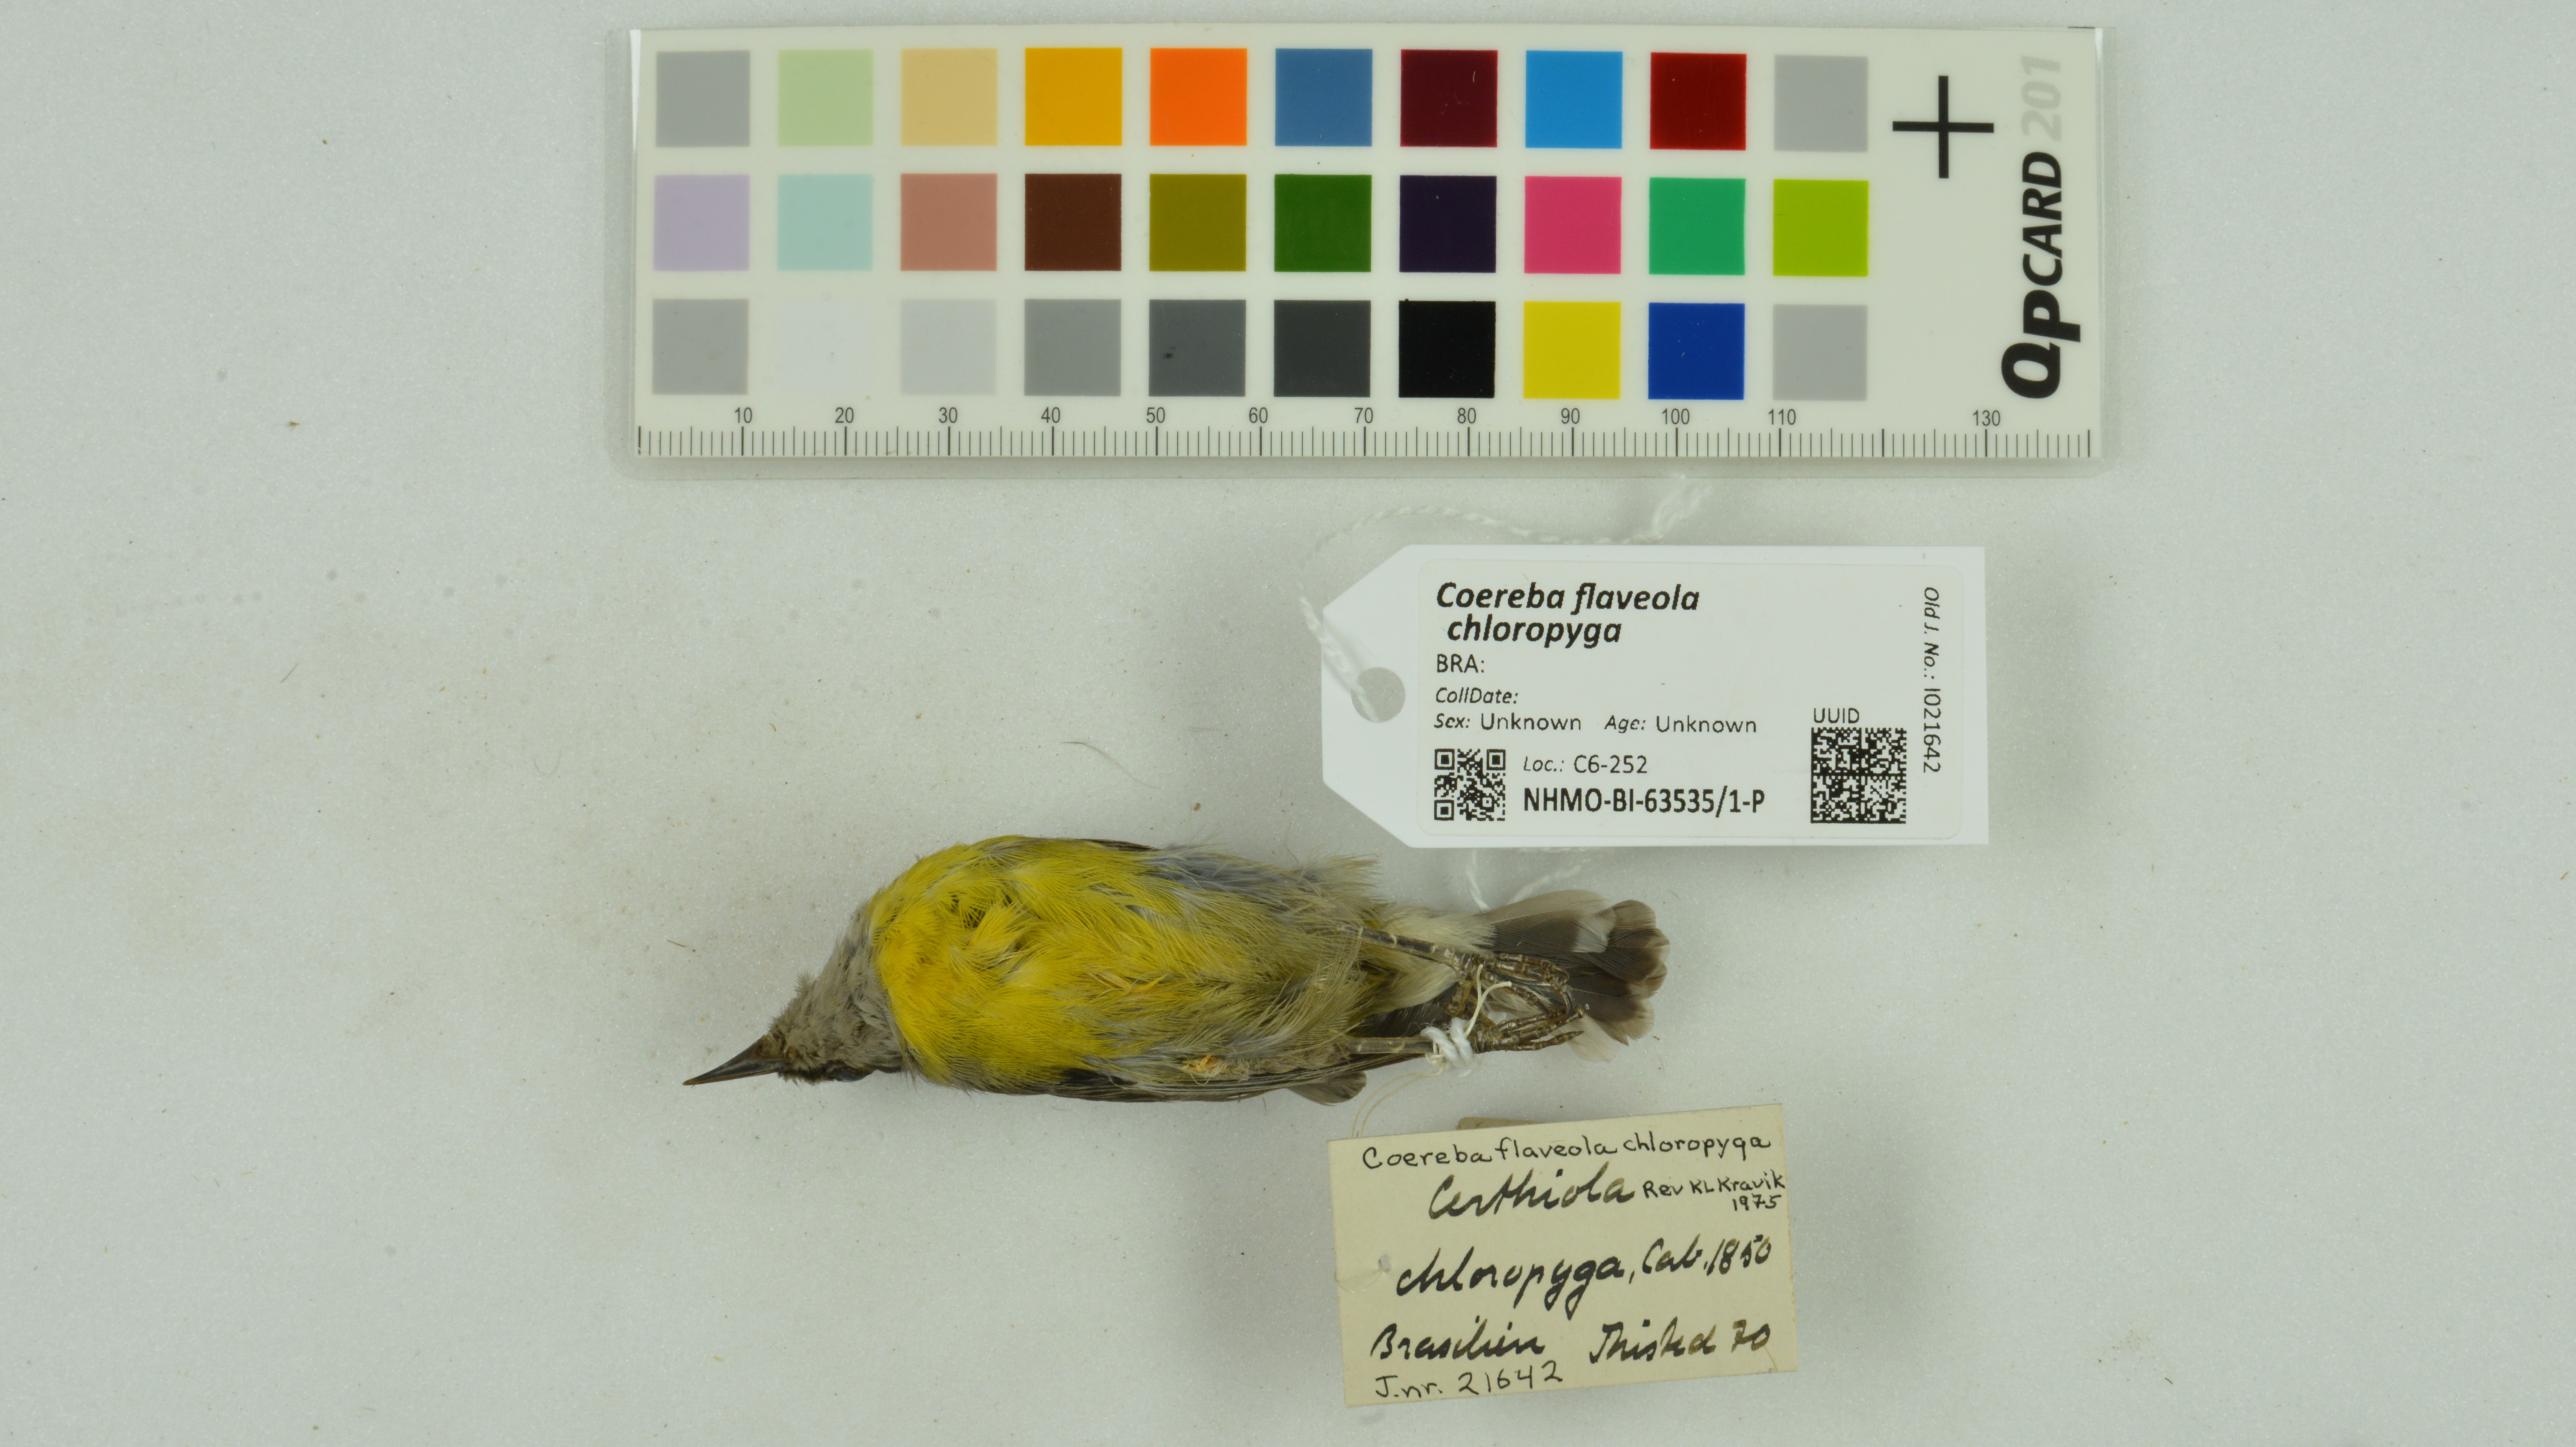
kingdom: Animalia
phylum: Chordata
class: Aves
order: Passeriformes
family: Thraupidae
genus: Coereba
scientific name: Coereba flaveola
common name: Bananaquit
